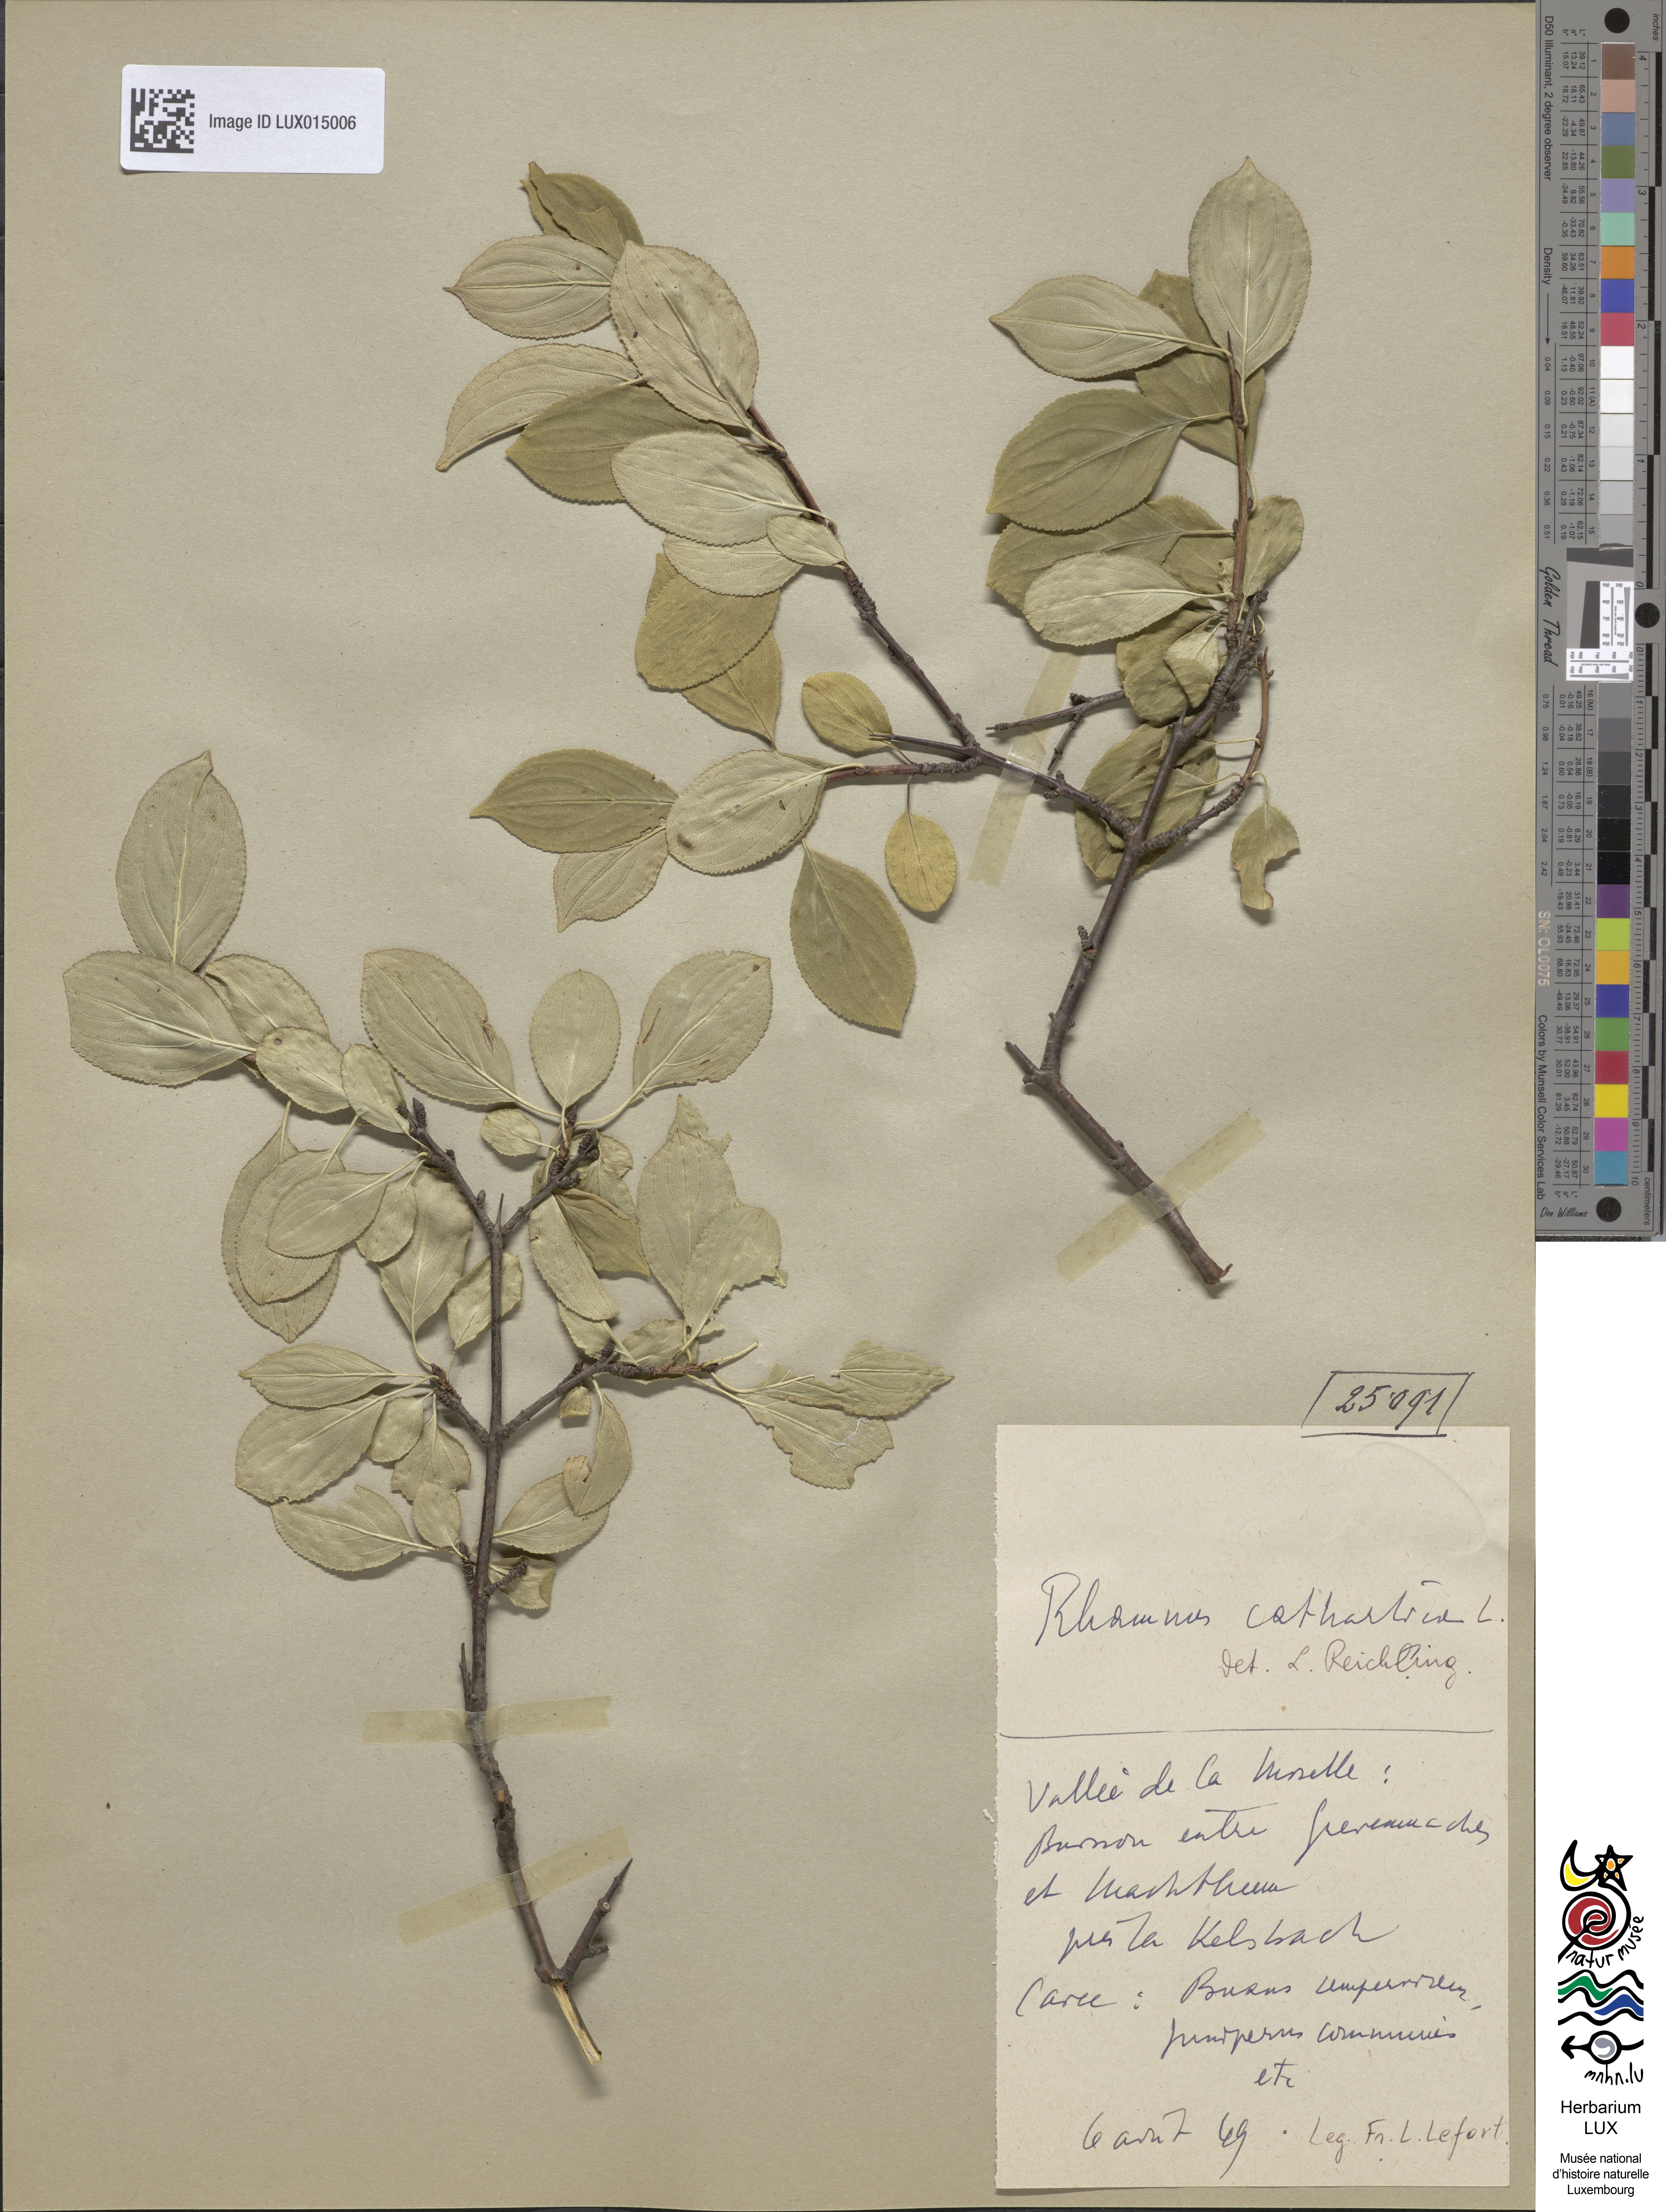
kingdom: Plantae
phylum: Tracheophyta
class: Magnoliopsida
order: Rosales
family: Rhamnaceae
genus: Rhamnus
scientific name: Rhamnus cathartica
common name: Common buckthorn
